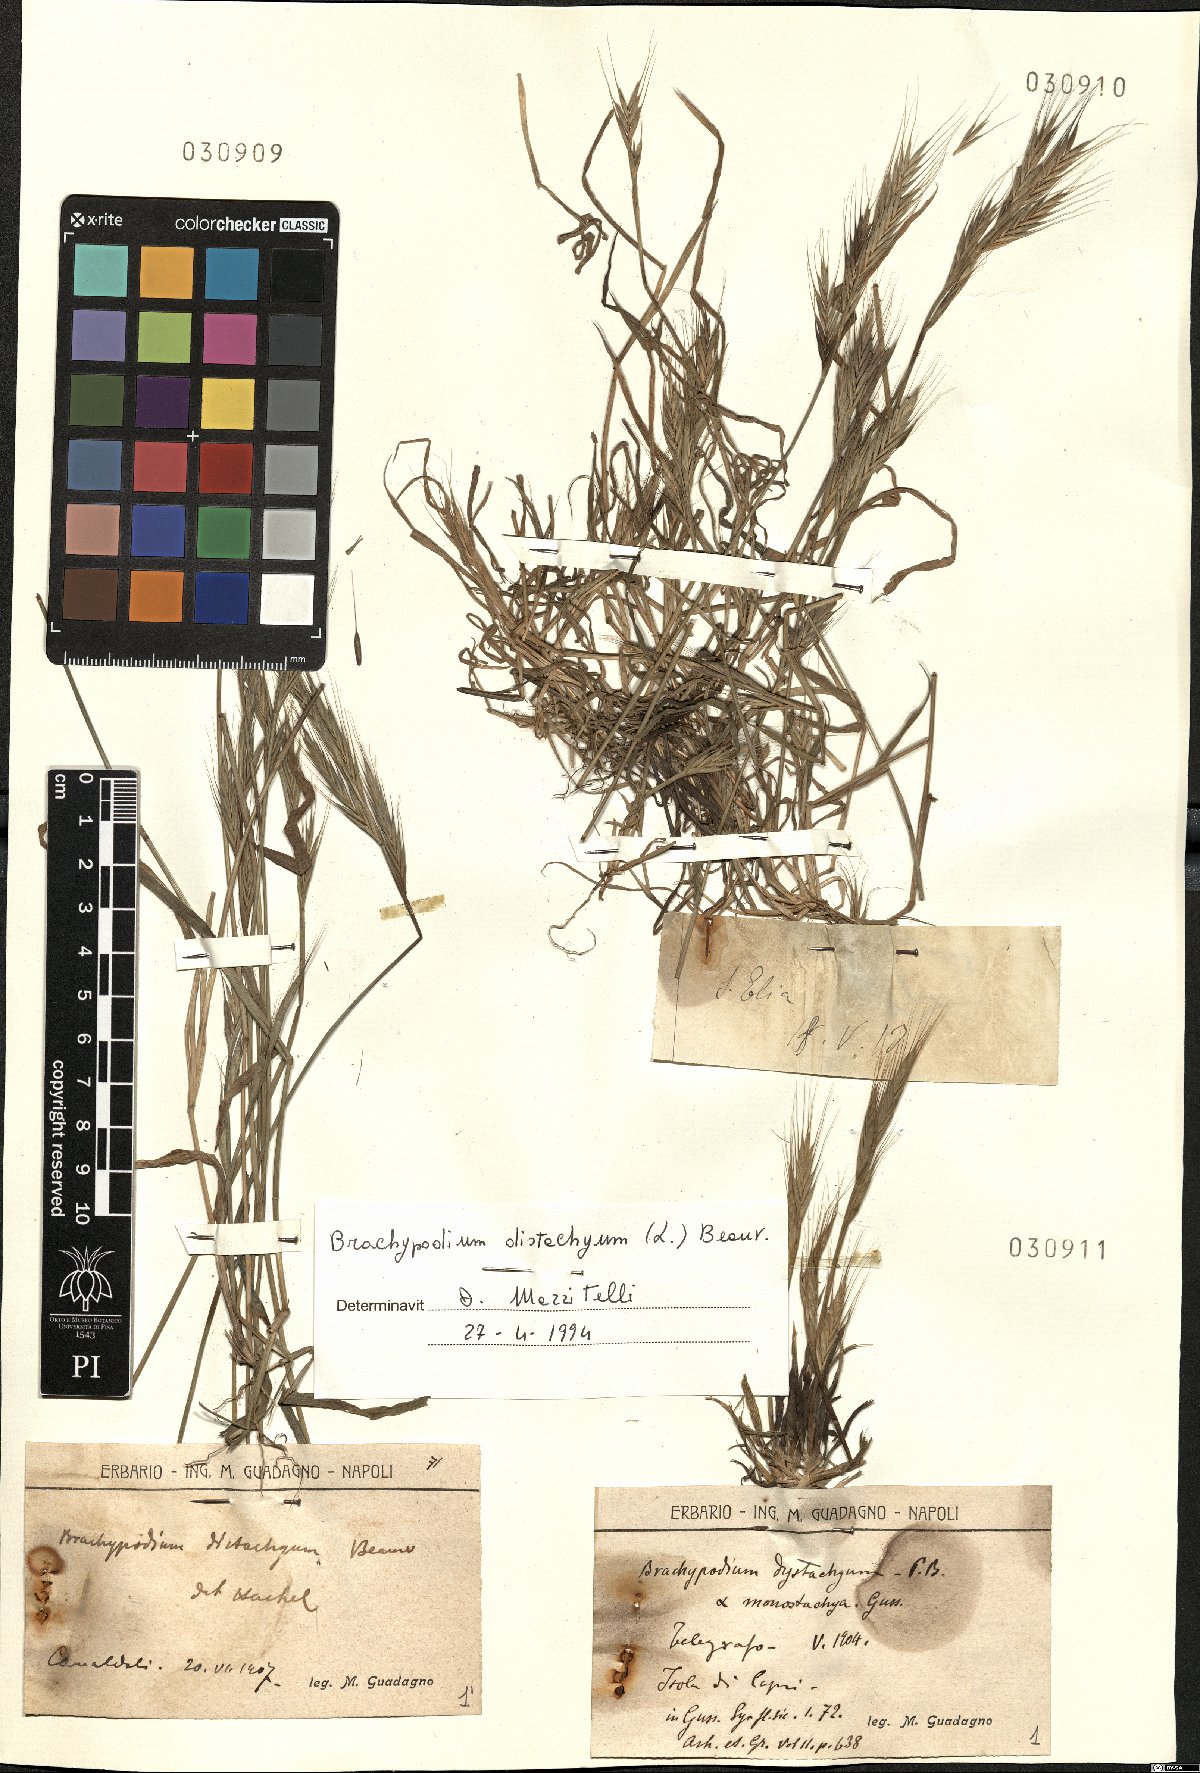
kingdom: Plantae
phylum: Tracheophyta
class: Liliopsida
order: Poales
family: Poaceae
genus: Brachypodium
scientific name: Brachypodium distachyon
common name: Stiff brome
